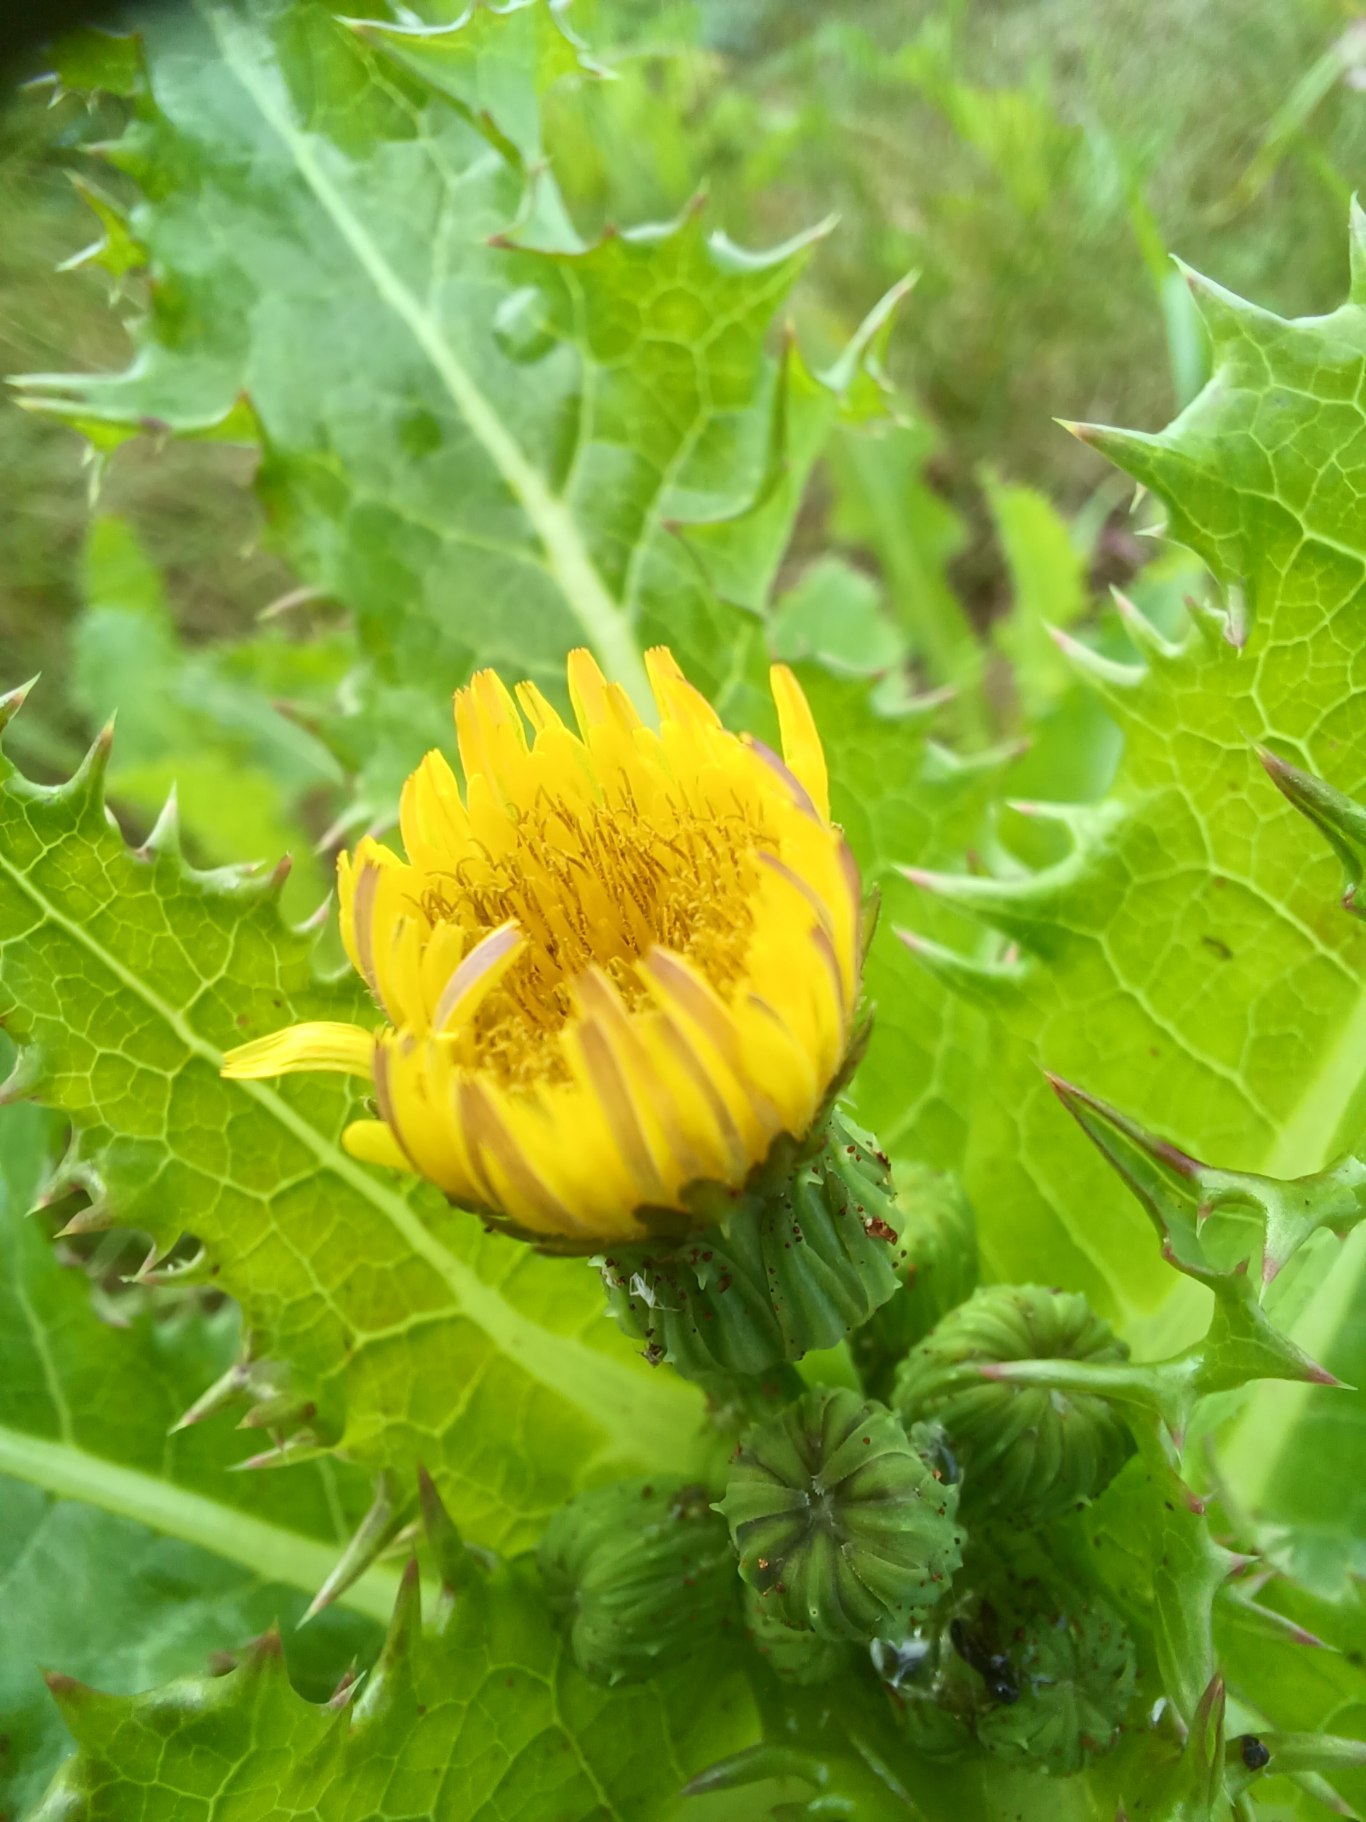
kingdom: Plantae
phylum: Tracheophyta
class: Magnoliopsida
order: Asterales
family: Asteraceae
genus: Sonchus
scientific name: Sonchus asper
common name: Ru svinemælk
